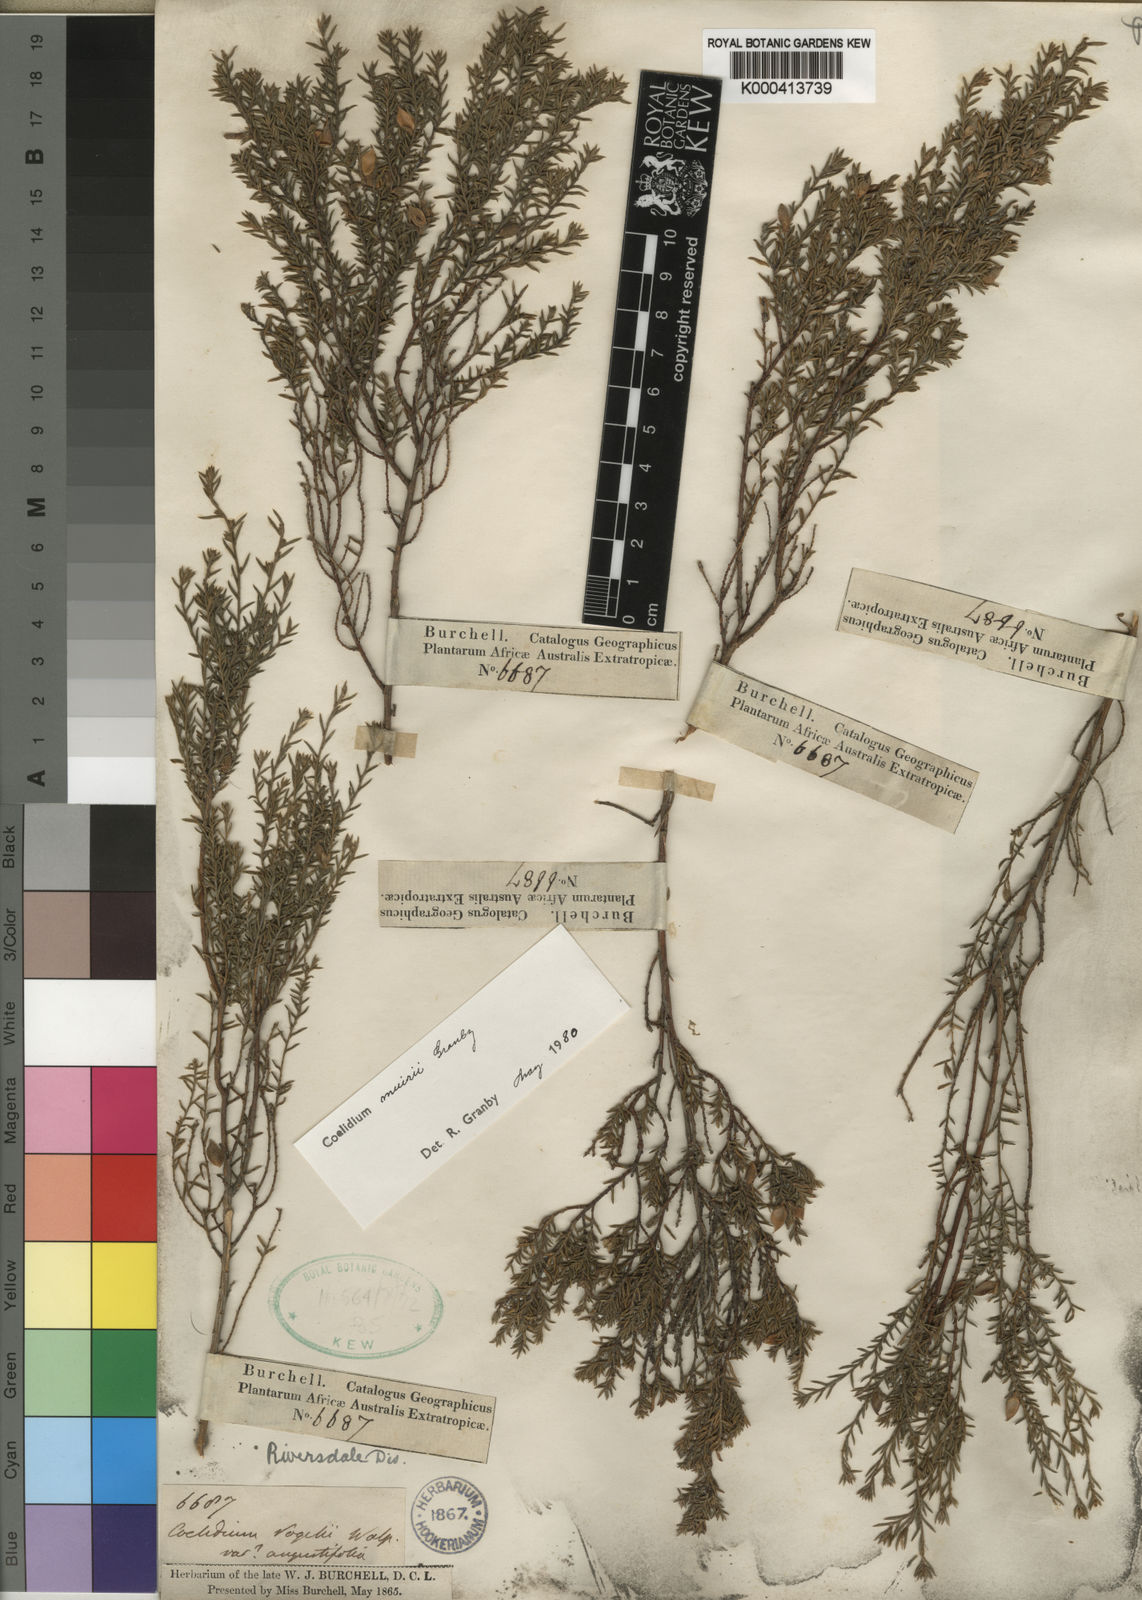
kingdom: Plantae
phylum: Tracheophyta
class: Magnoliopsida
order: Fabales
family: Fabaceae
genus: Amphithalea
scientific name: Amphithalea muirii
